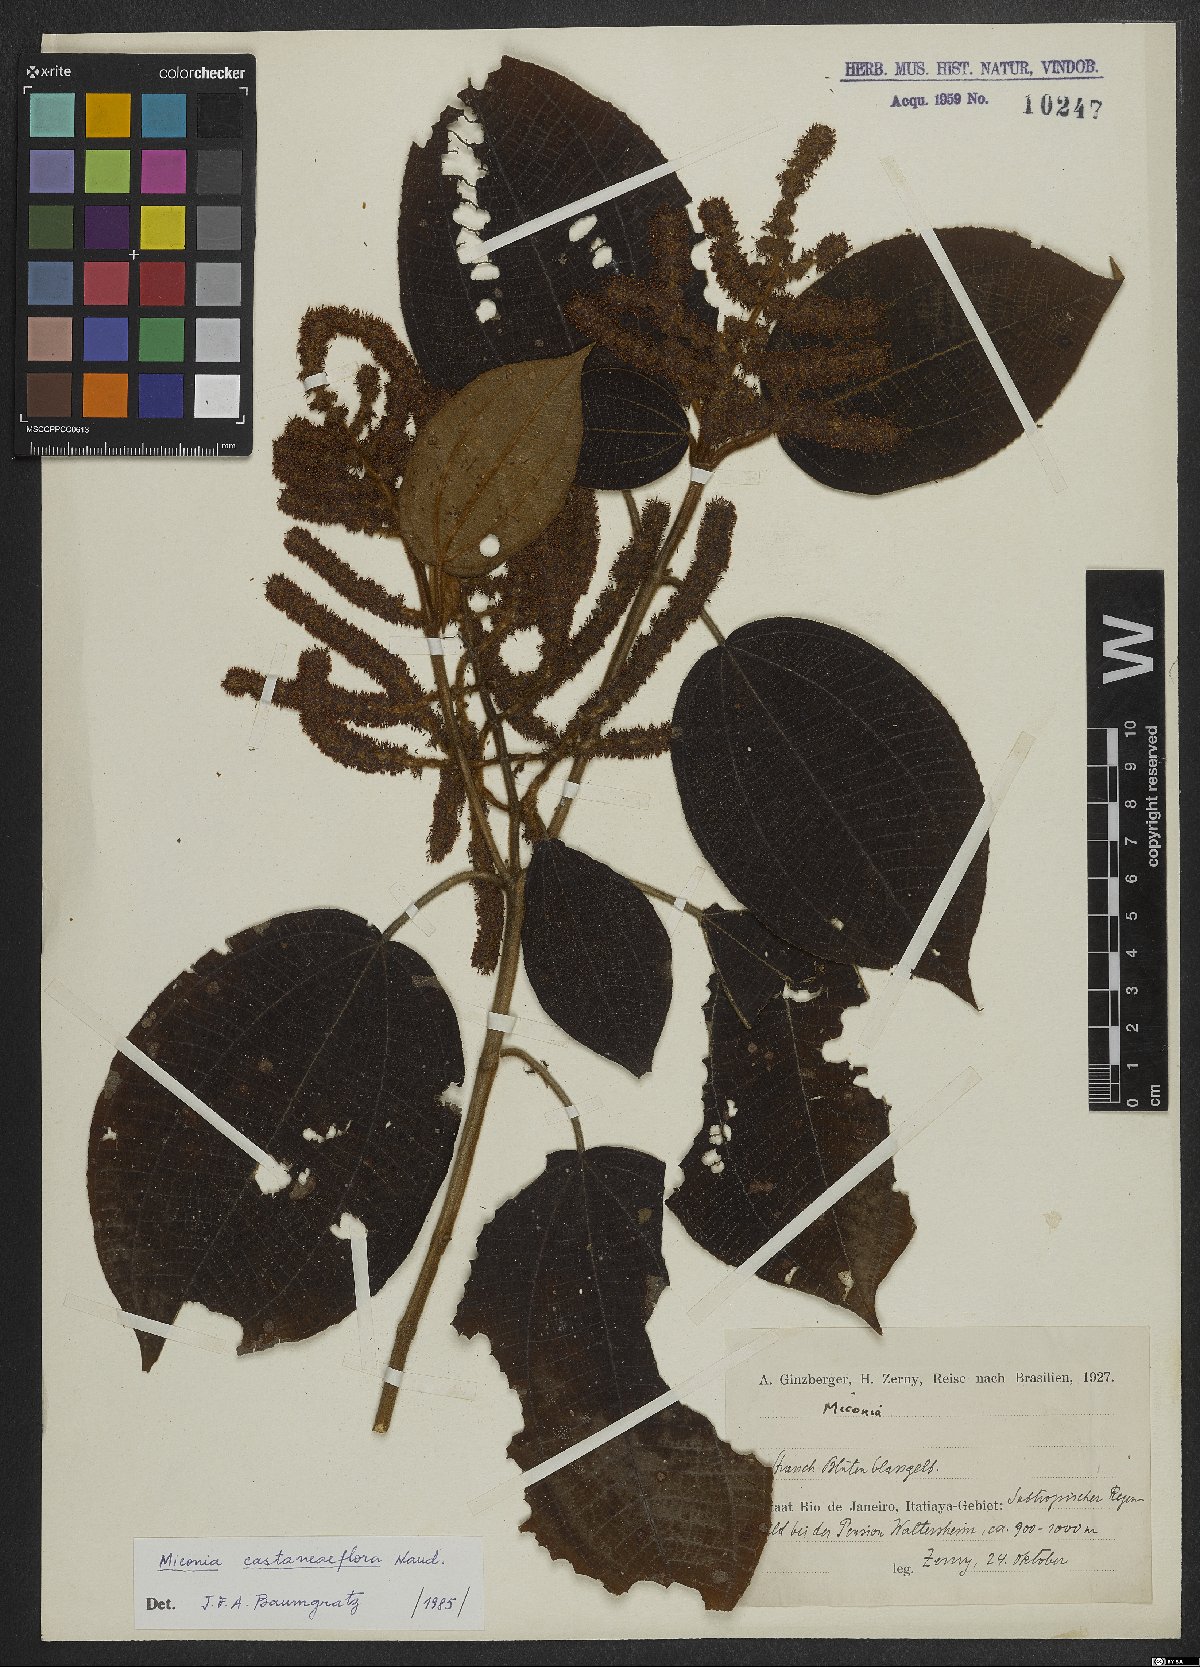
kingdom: Plantae
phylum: Tracheophyta
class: Magnoliopsida
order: Myrtales
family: Melastomataceae
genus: Miconia
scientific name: Miconia
